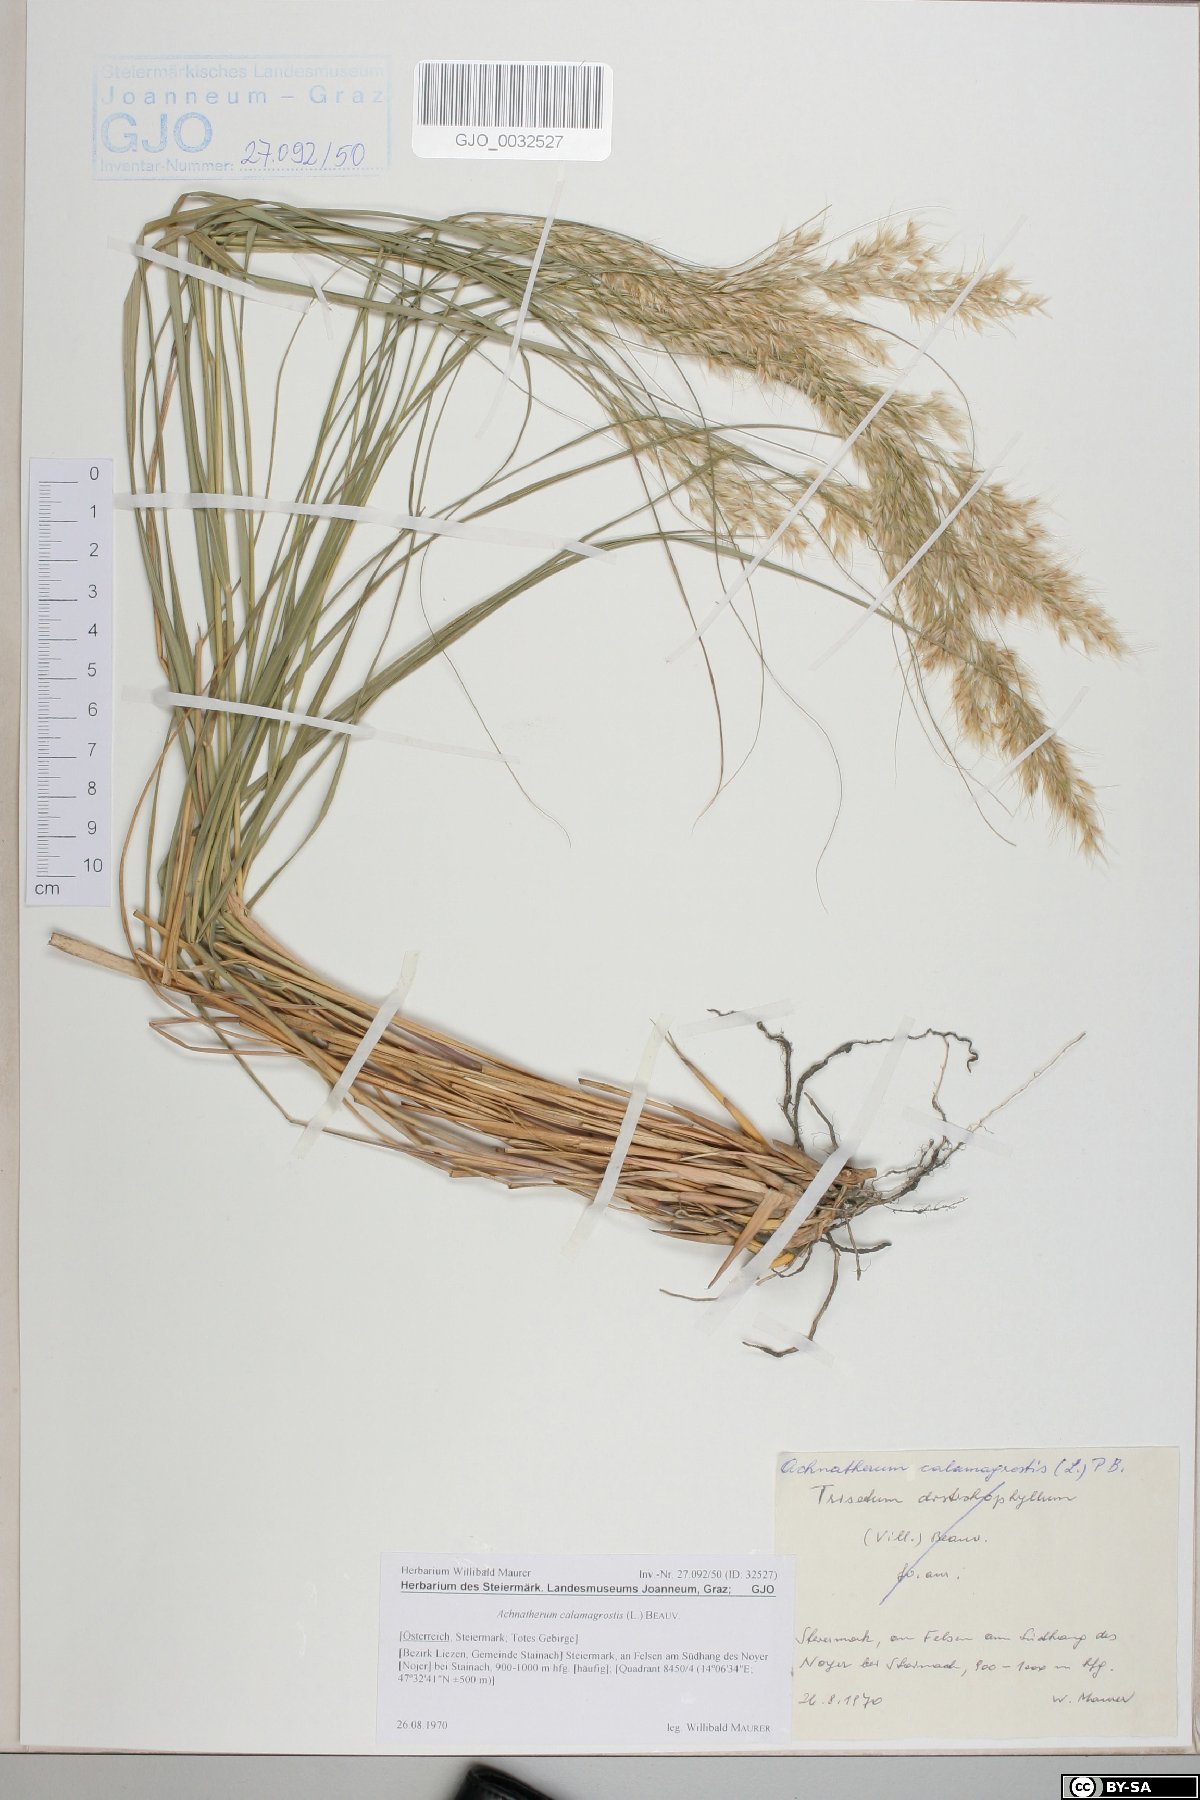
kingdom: Plantae
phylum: Tracheophyta
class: Liliopsida
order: Poales
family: Poaceae
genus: Achnatherum
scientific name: Achnatherum calamagrostis
